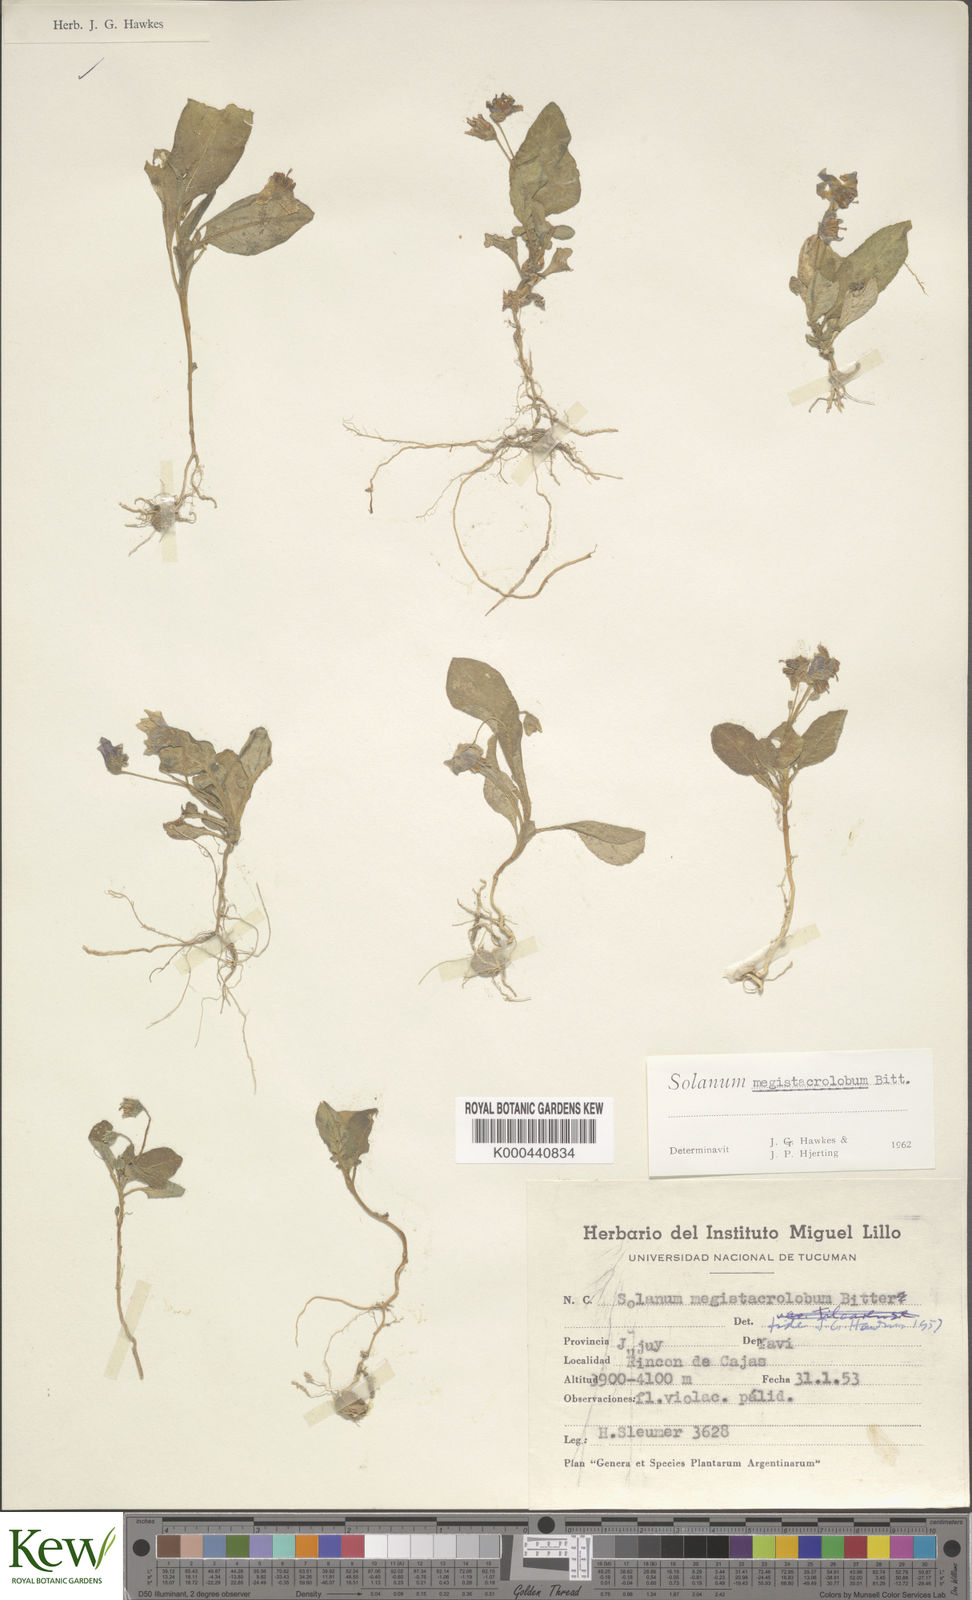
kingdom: Plantae
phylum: Tracheophyta
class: Magnoliopsida
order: Solanales
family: Solanaceae
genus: Solanum
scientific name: Solanum boliviense
